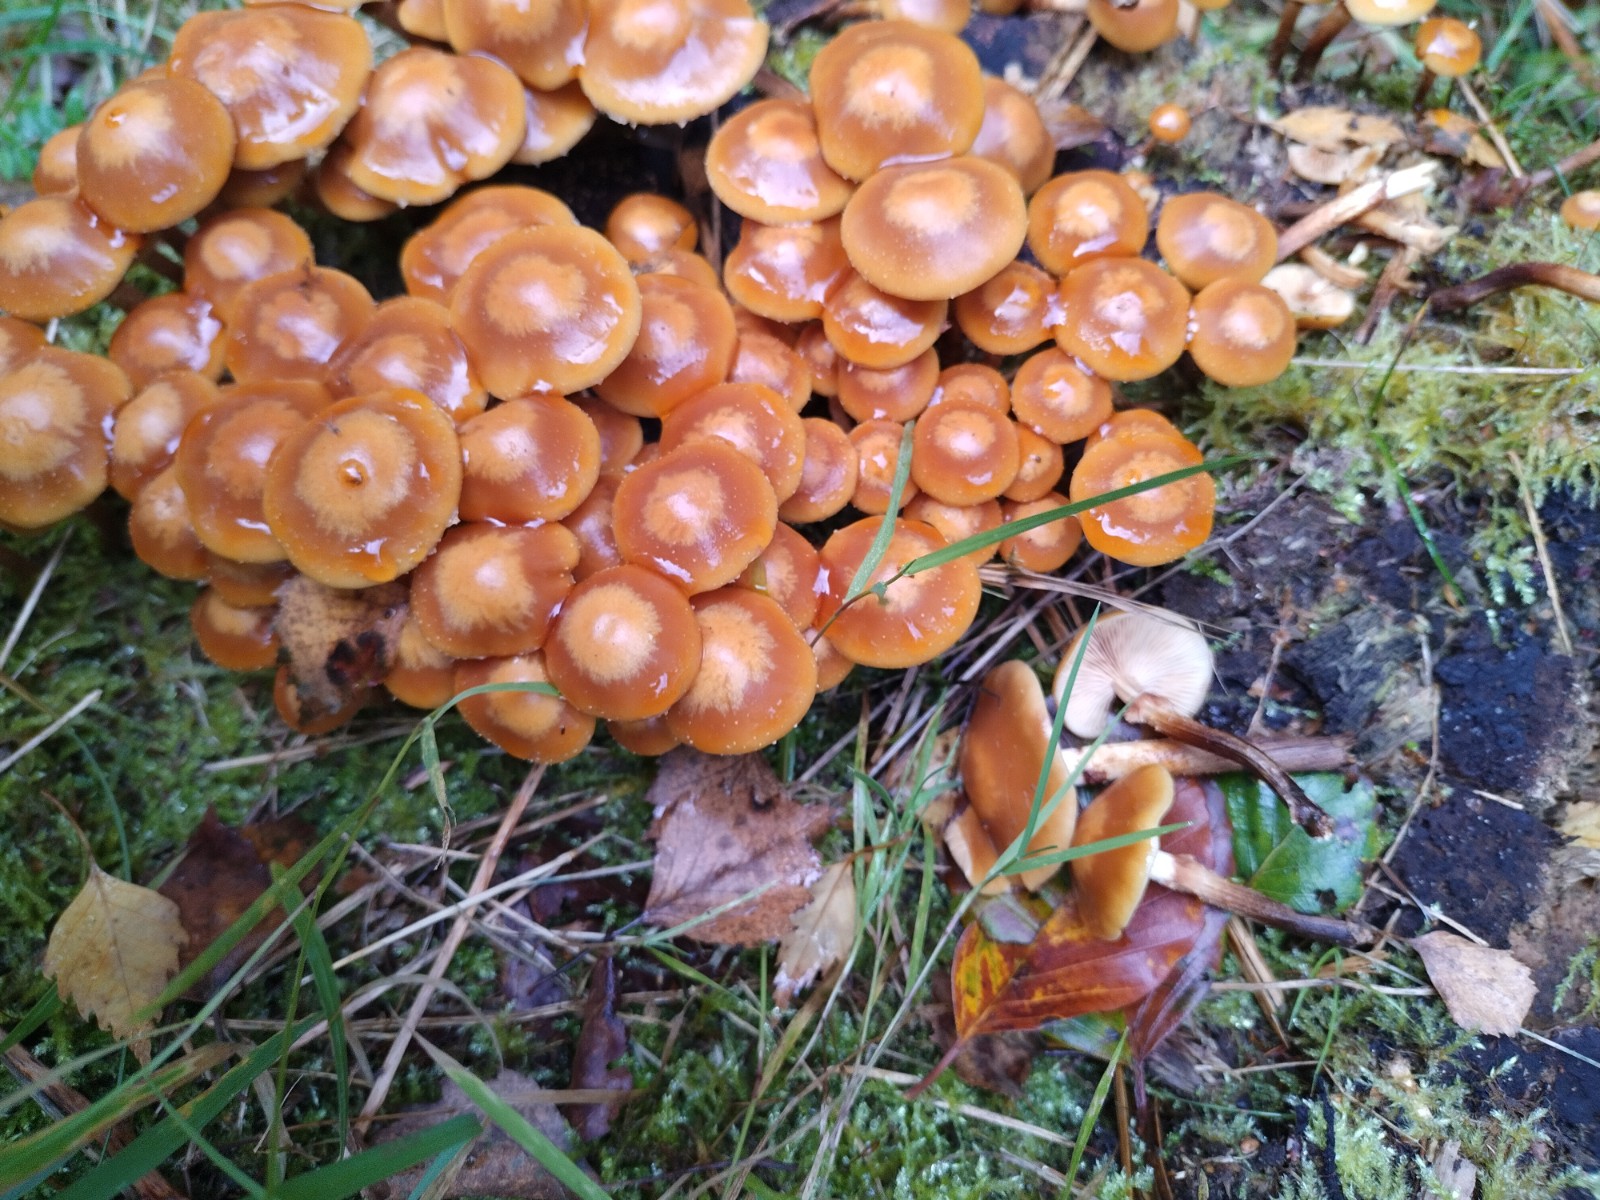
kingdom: Fungi
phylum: Basidiomycota
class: Agaricomycetes
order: Agaricales
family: Strophariaceae
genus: Kuehneromyces
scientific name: Kuehneromyces mutabilis
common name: foranderlig skælhat
